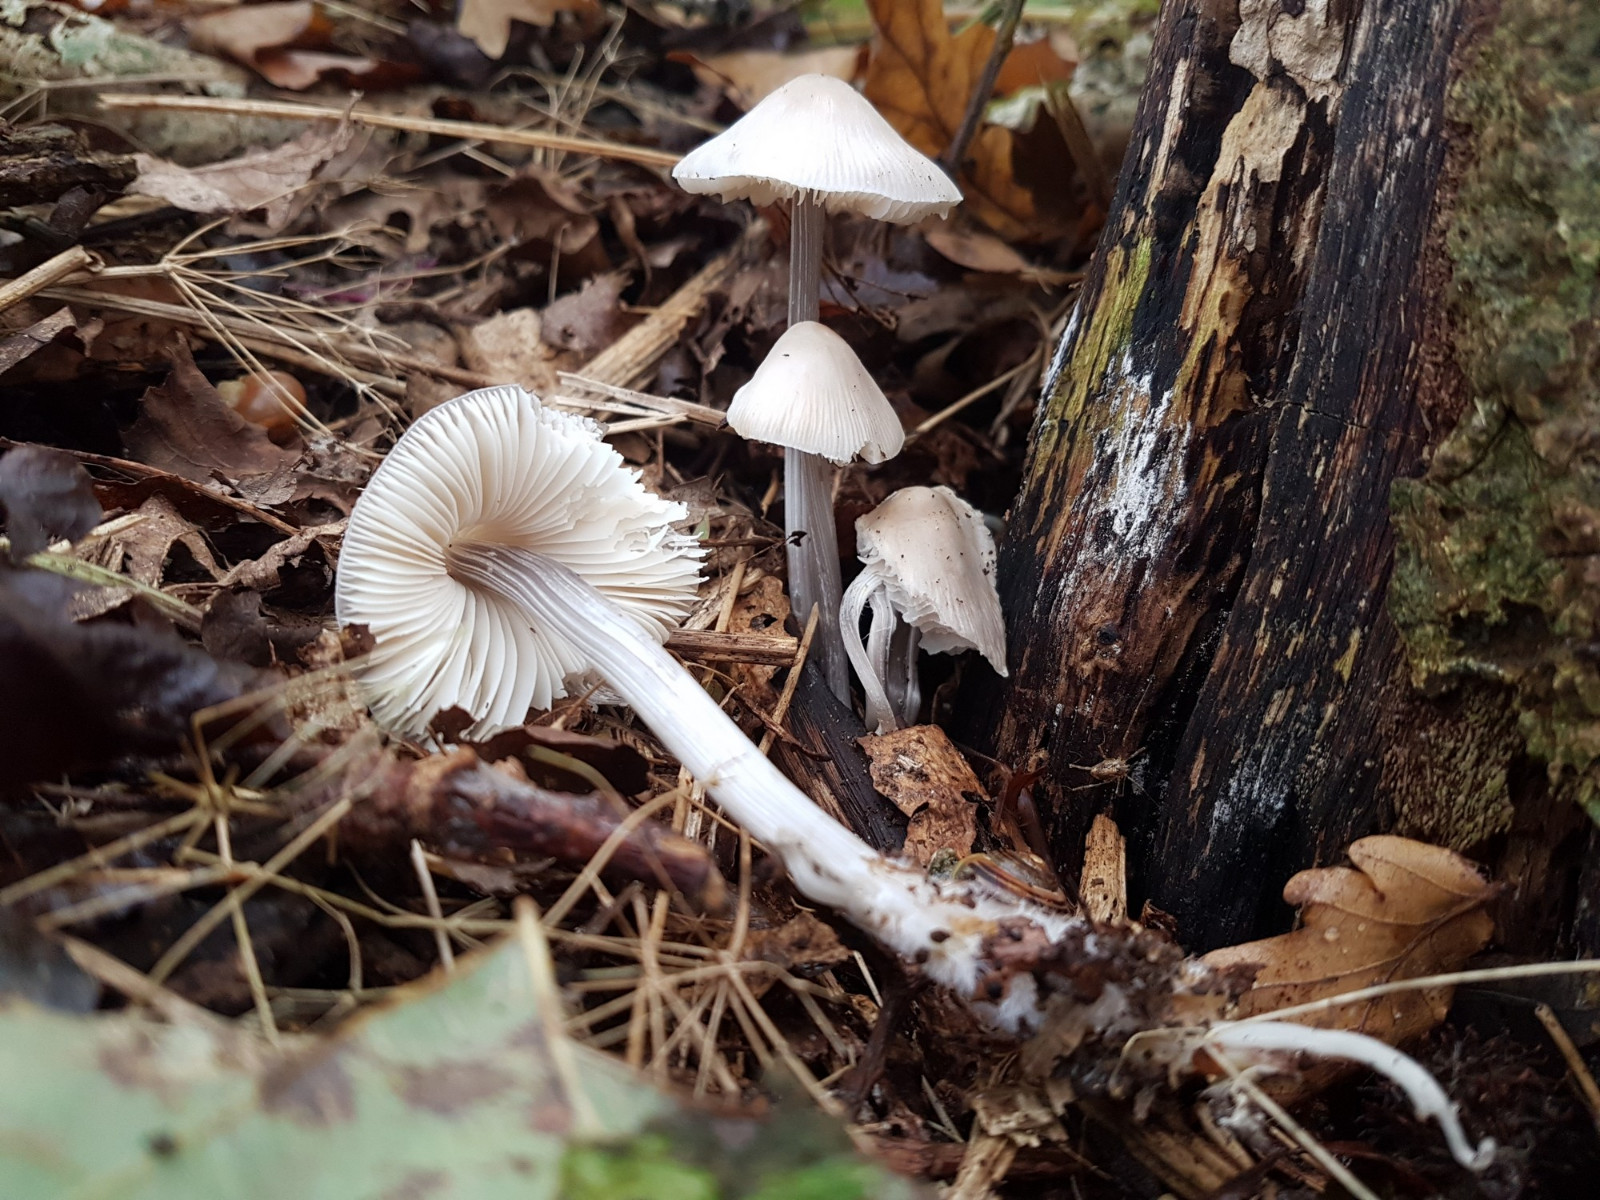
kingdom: Fungi
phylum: Basidiomycota
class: Agaricomycetes
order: Agaricales
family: Mycenaceae
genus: Mycena
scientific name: Mycena polygramma
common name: mangestribet huesvamp
